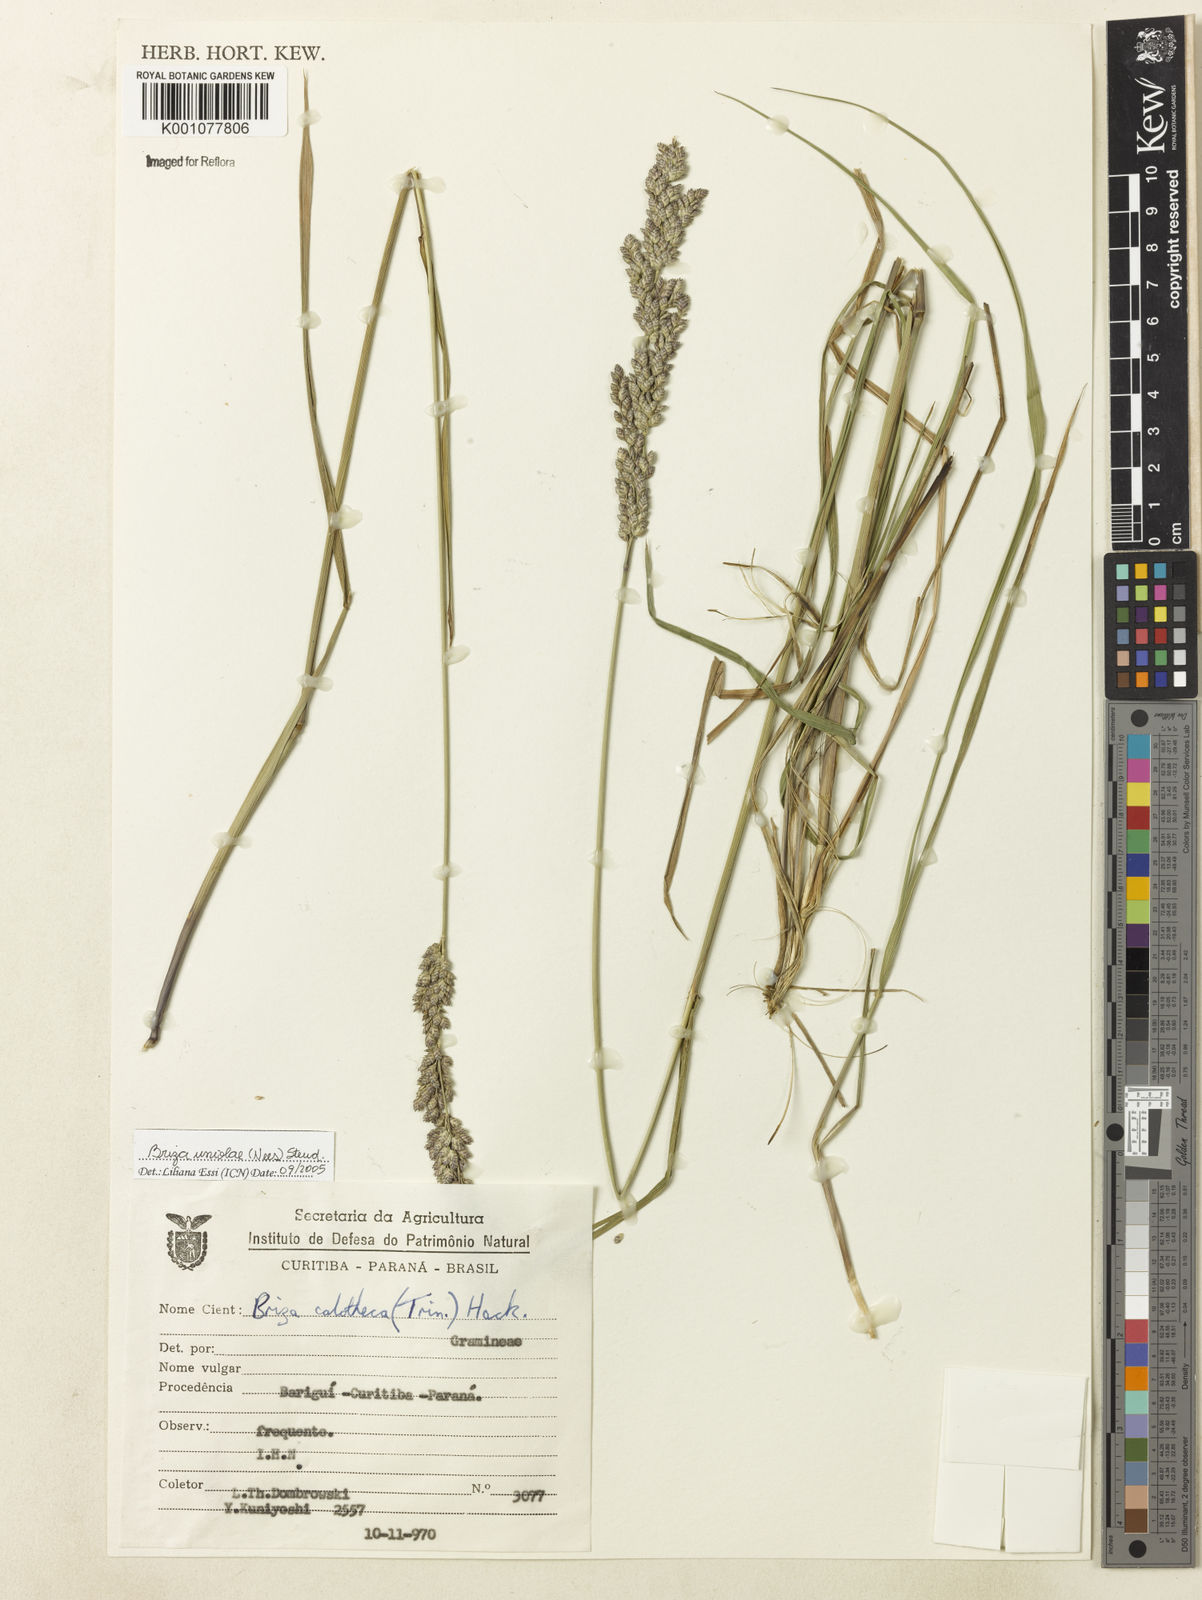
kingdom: Plantae
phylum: Tracheophyta
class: Liliopsida
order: Poales
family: Poaceae
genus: Poidium
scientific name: Poidium uniolae
